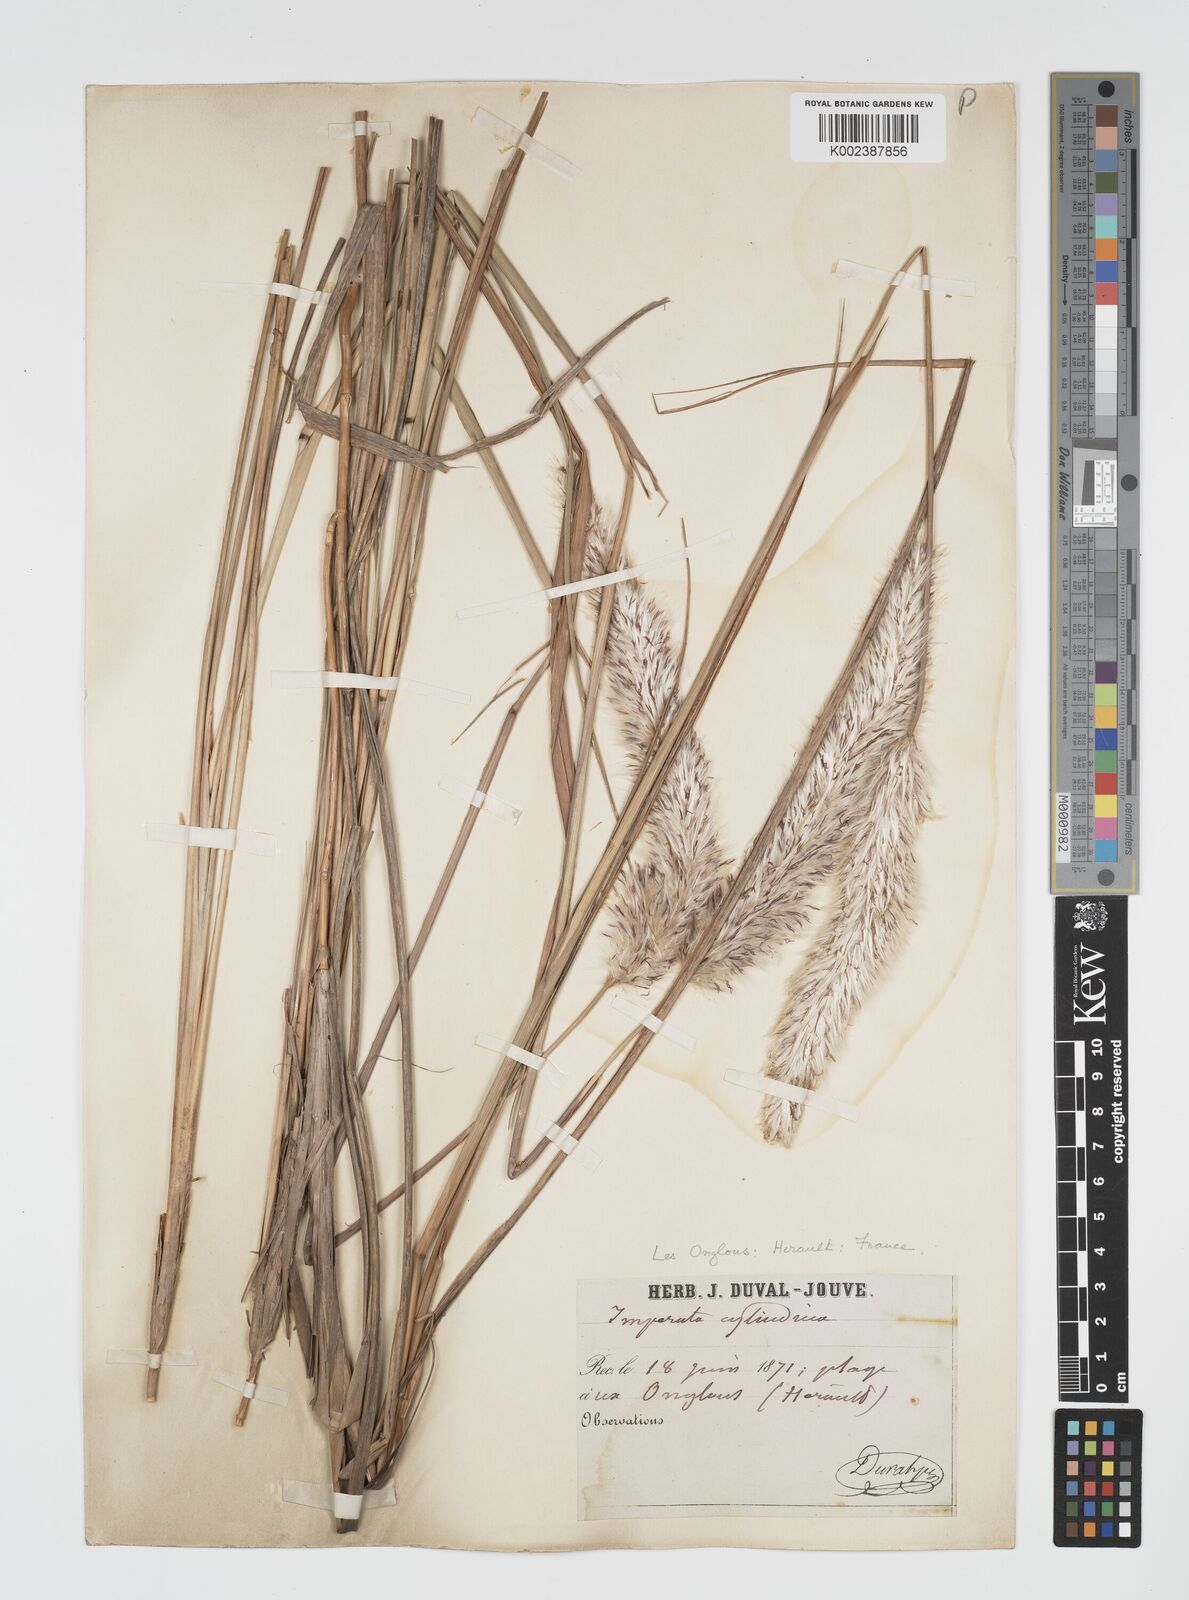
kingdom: Plantae
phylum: Tracheophyta
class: Liliopsida
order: Poales
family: Poaceae
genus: Imperata
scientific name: Imperata cylindrica
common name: Cogongrass
